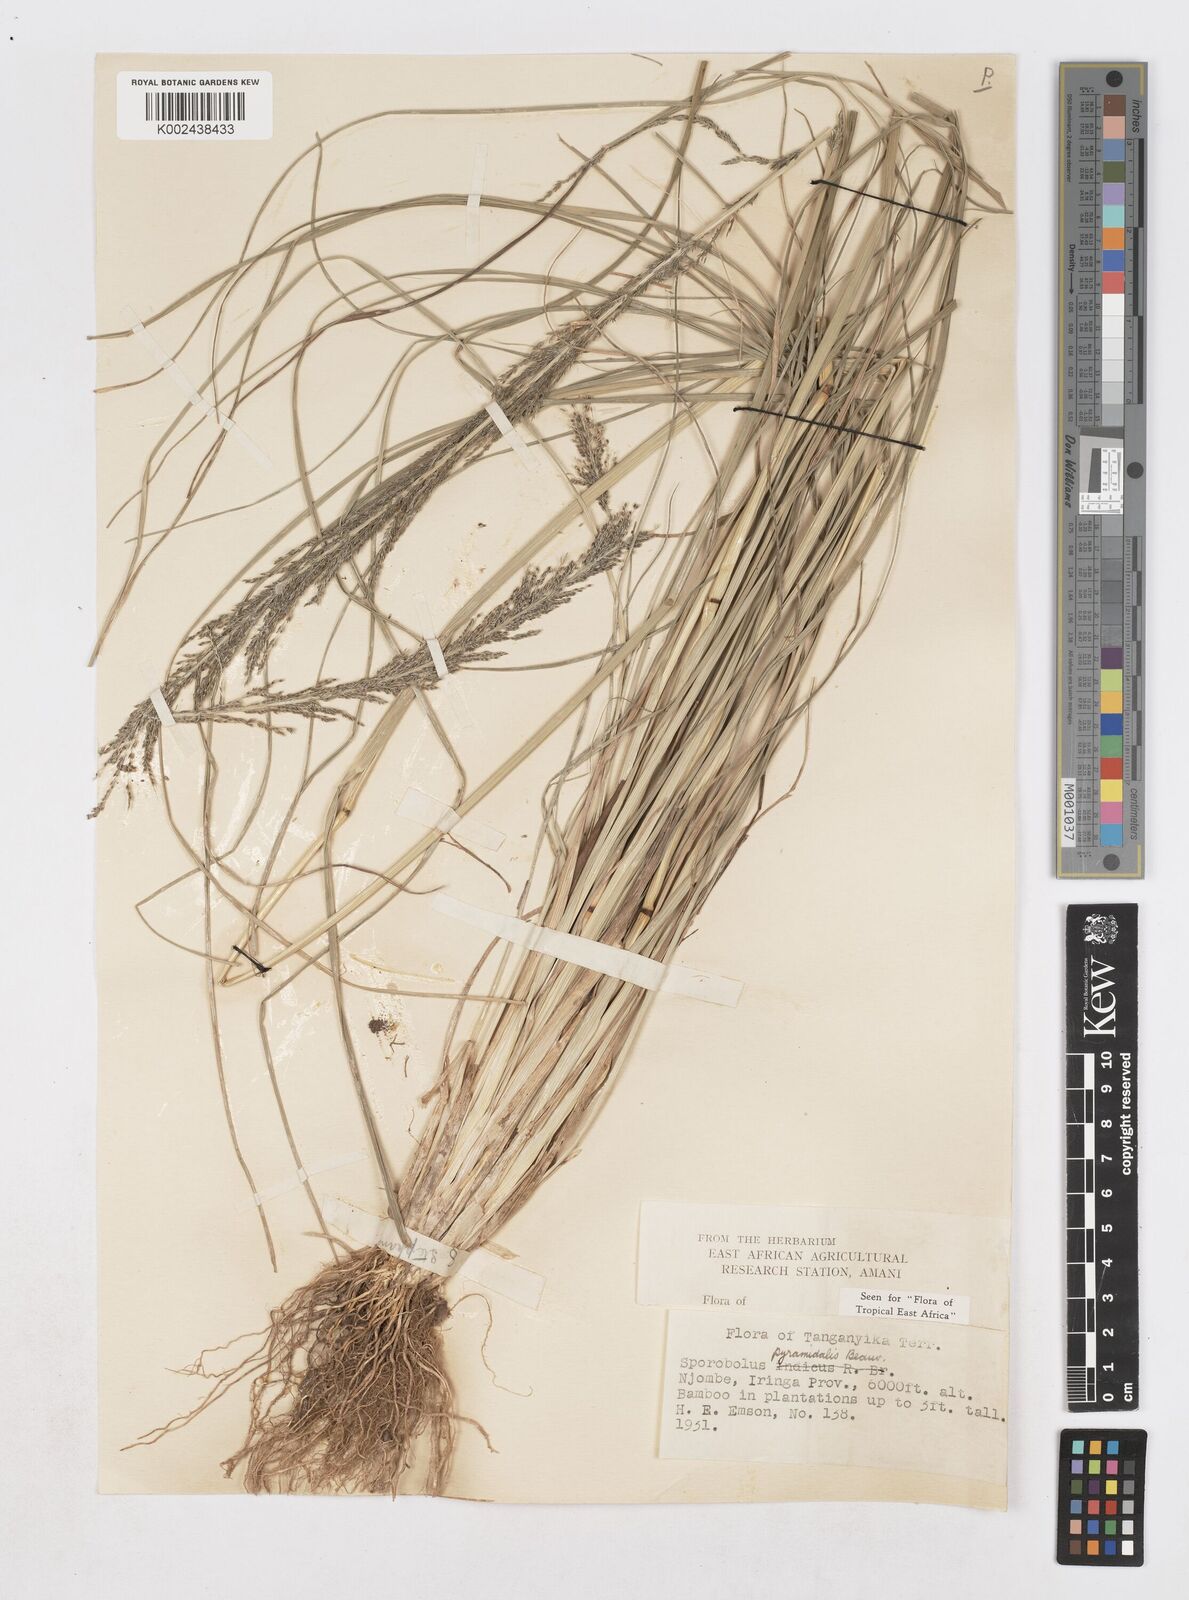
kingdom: Plantae
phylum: Tracheophyta
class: Liliopsida
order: Poales
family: Poaceae
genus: Sporobolus
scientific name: Sporobolus pyramidalis
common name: West indian dropseed
